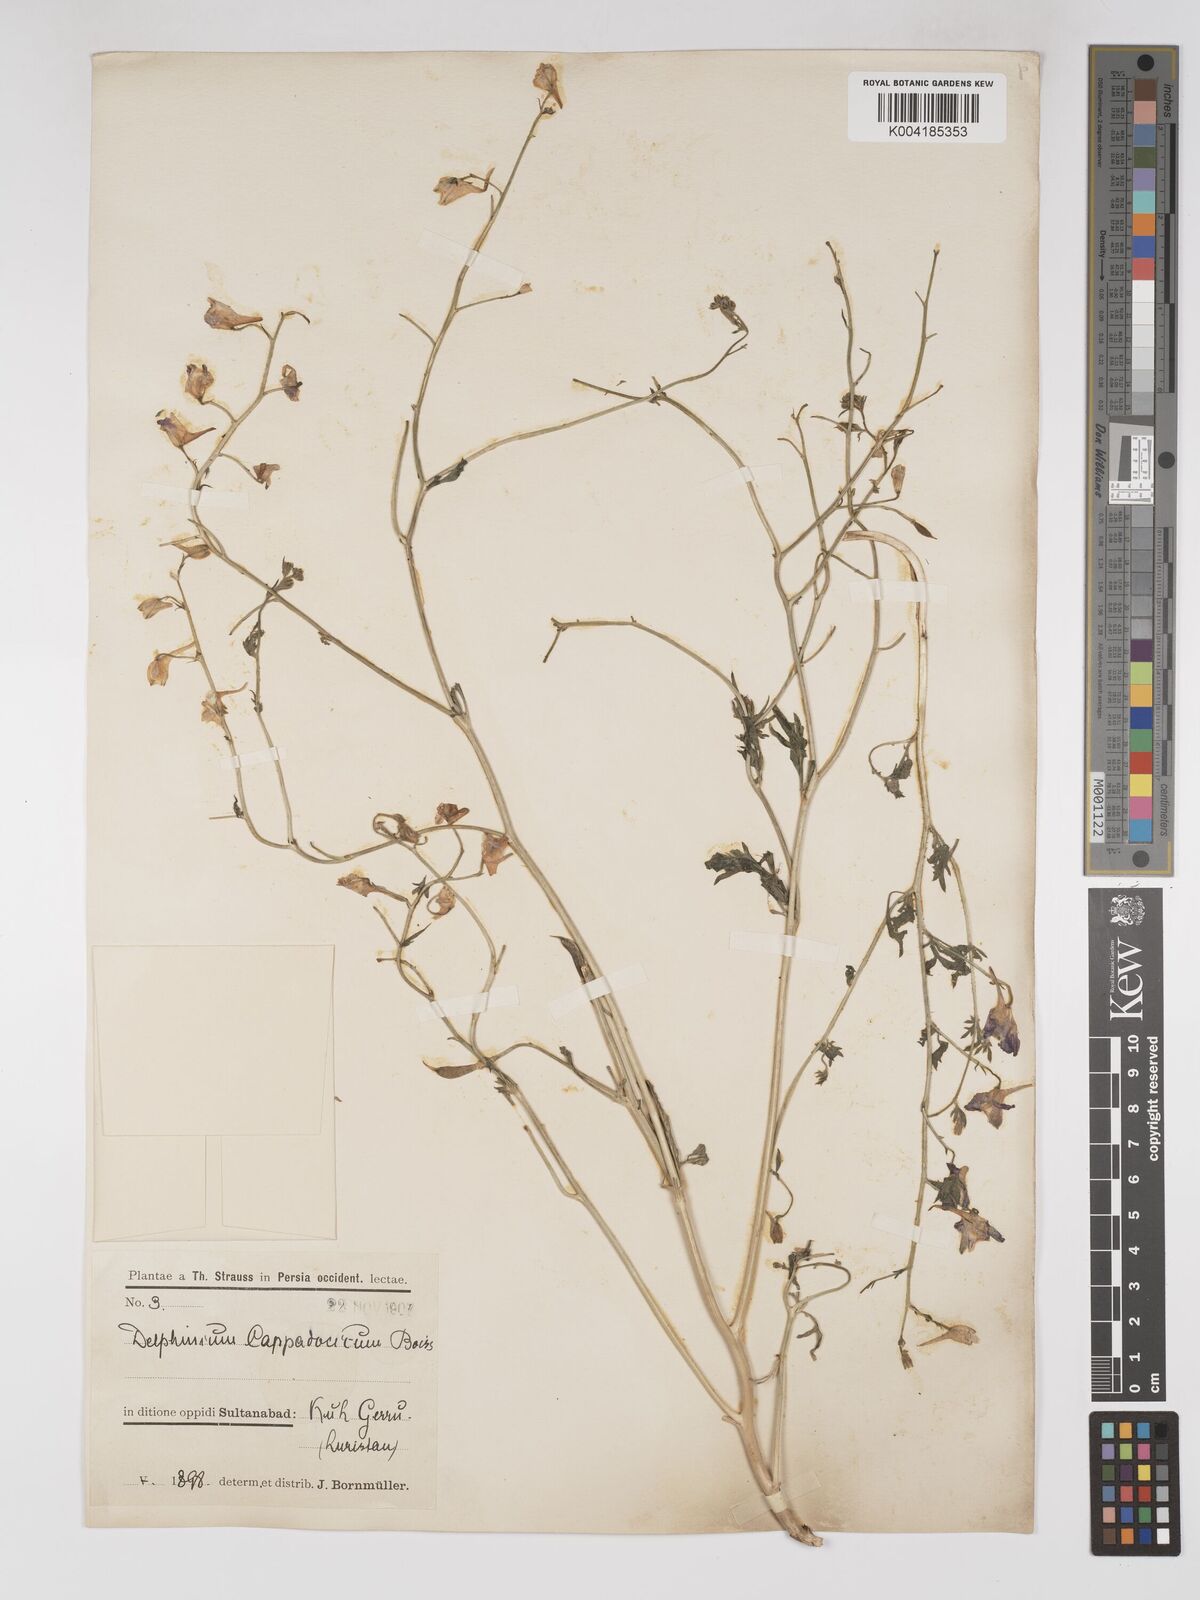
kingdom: Plantae
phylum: Tracheophyta
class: Magnoliopsida
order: Ranunculales
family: Ranunculaceae
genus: Delphinium
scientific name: Delphinium oliverianum
